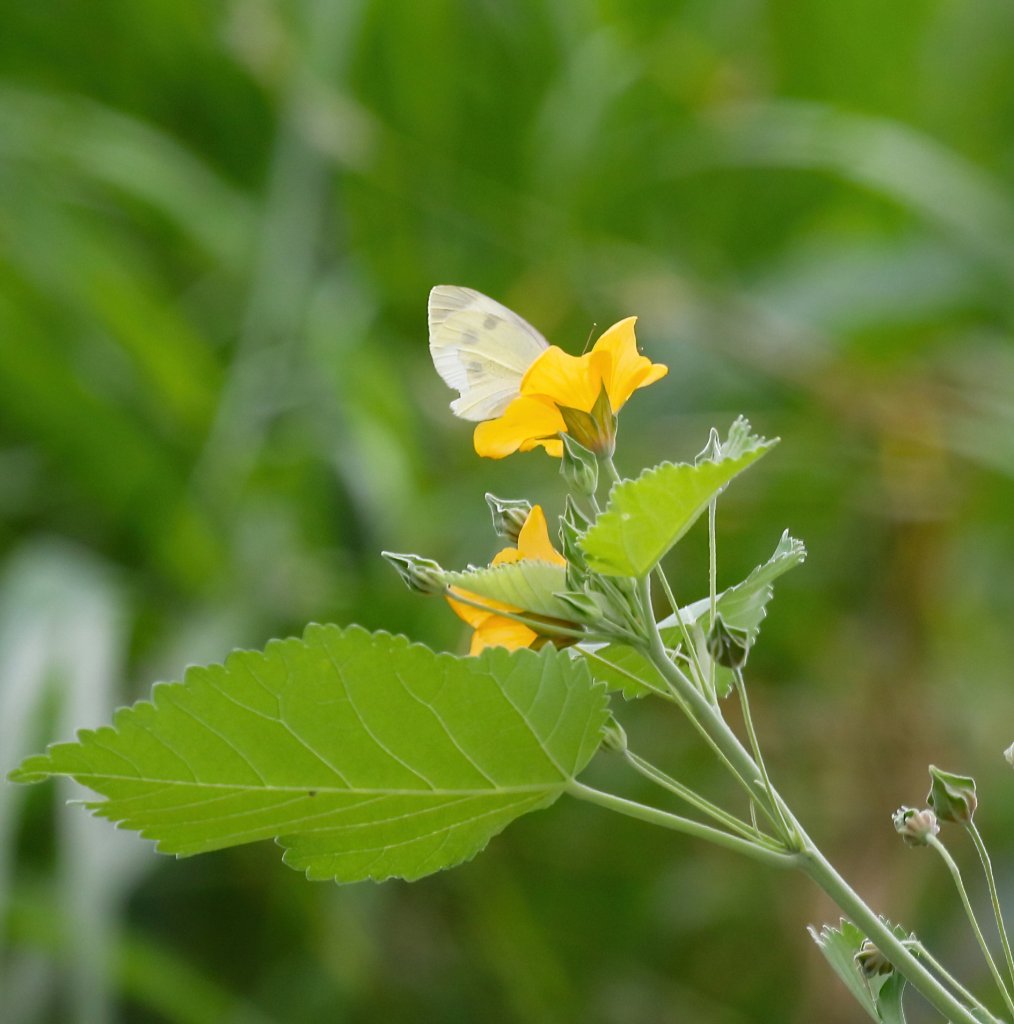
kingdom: Animalia
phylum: Arthropoda
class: Insecta
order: Lepidoptera
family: Pieridae
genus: Pieris
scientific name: Pieris rapae
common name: Cabbage White
